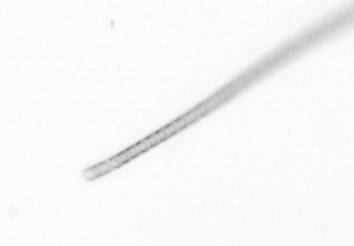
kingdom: Chromista
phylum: Ochrophyta
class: Bacillariophyceae
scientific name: Bacillariophyceae
